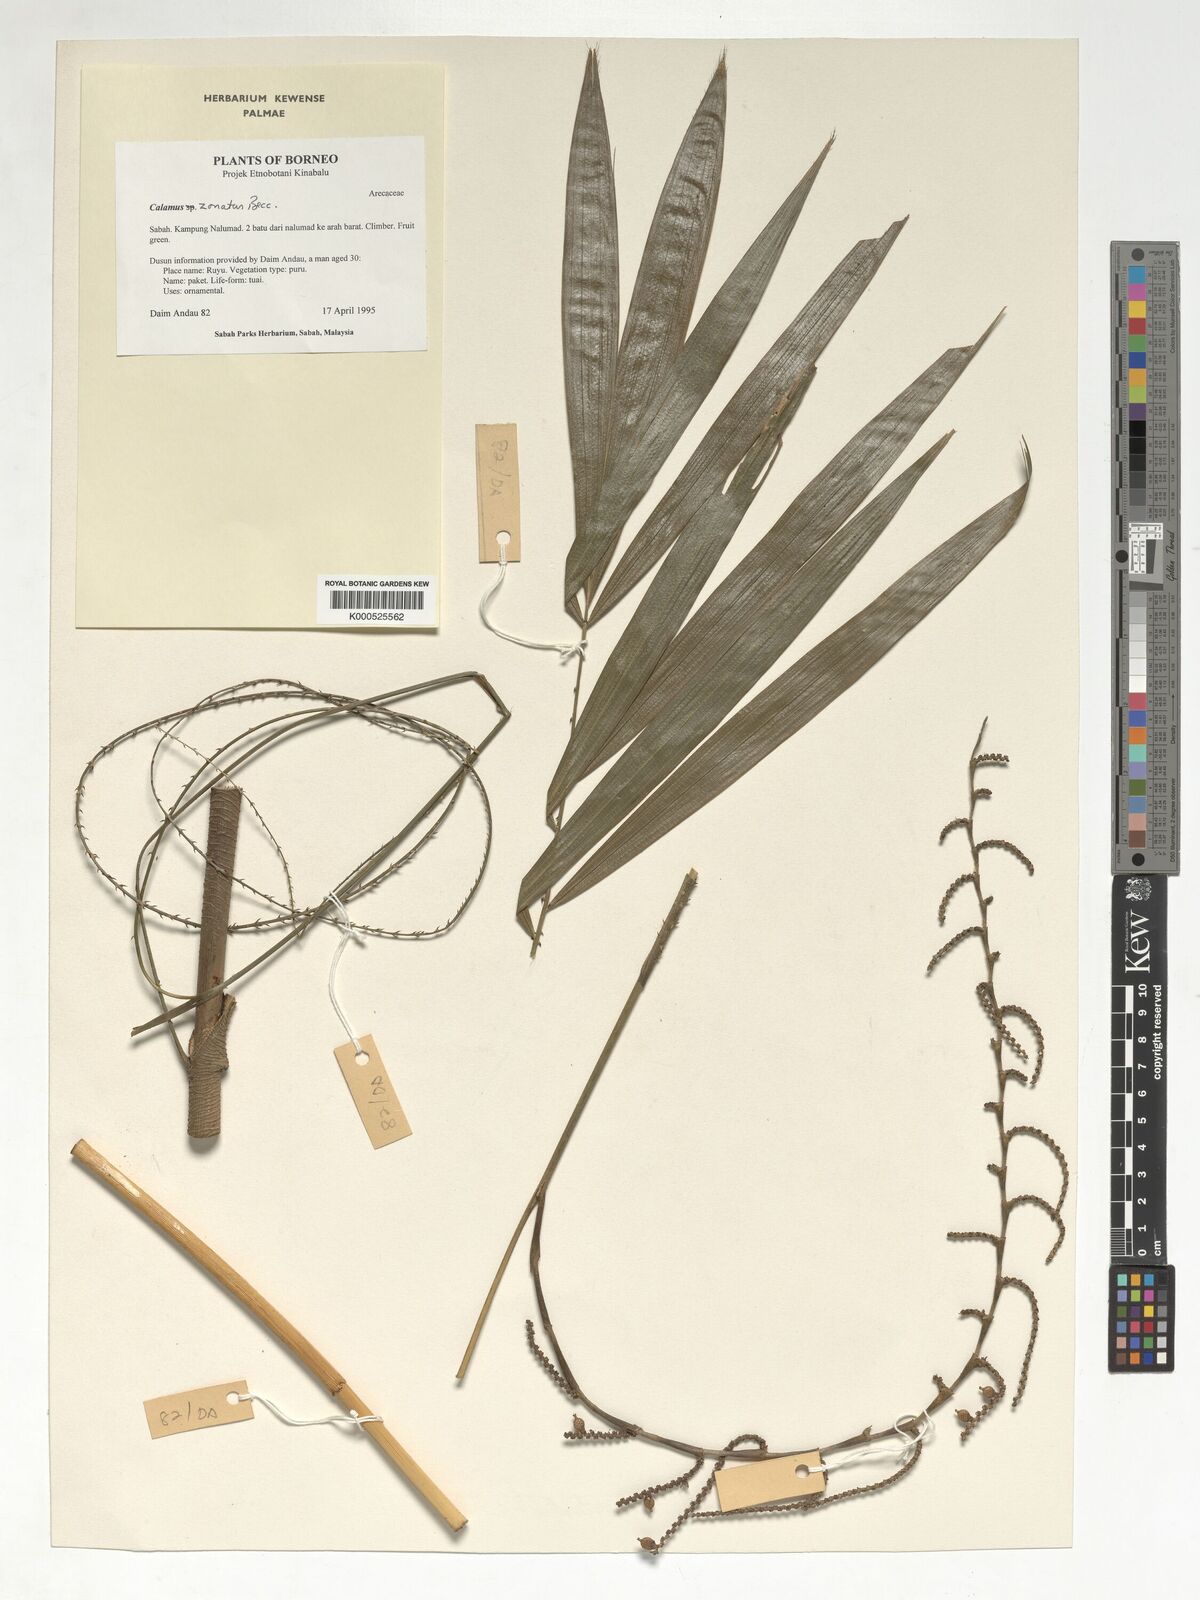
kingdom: Plantae
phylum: Tracheophyta
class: Liliopsida
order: Arecales
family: Arecaceae
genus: Calamus
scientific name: Calamus zonatus
